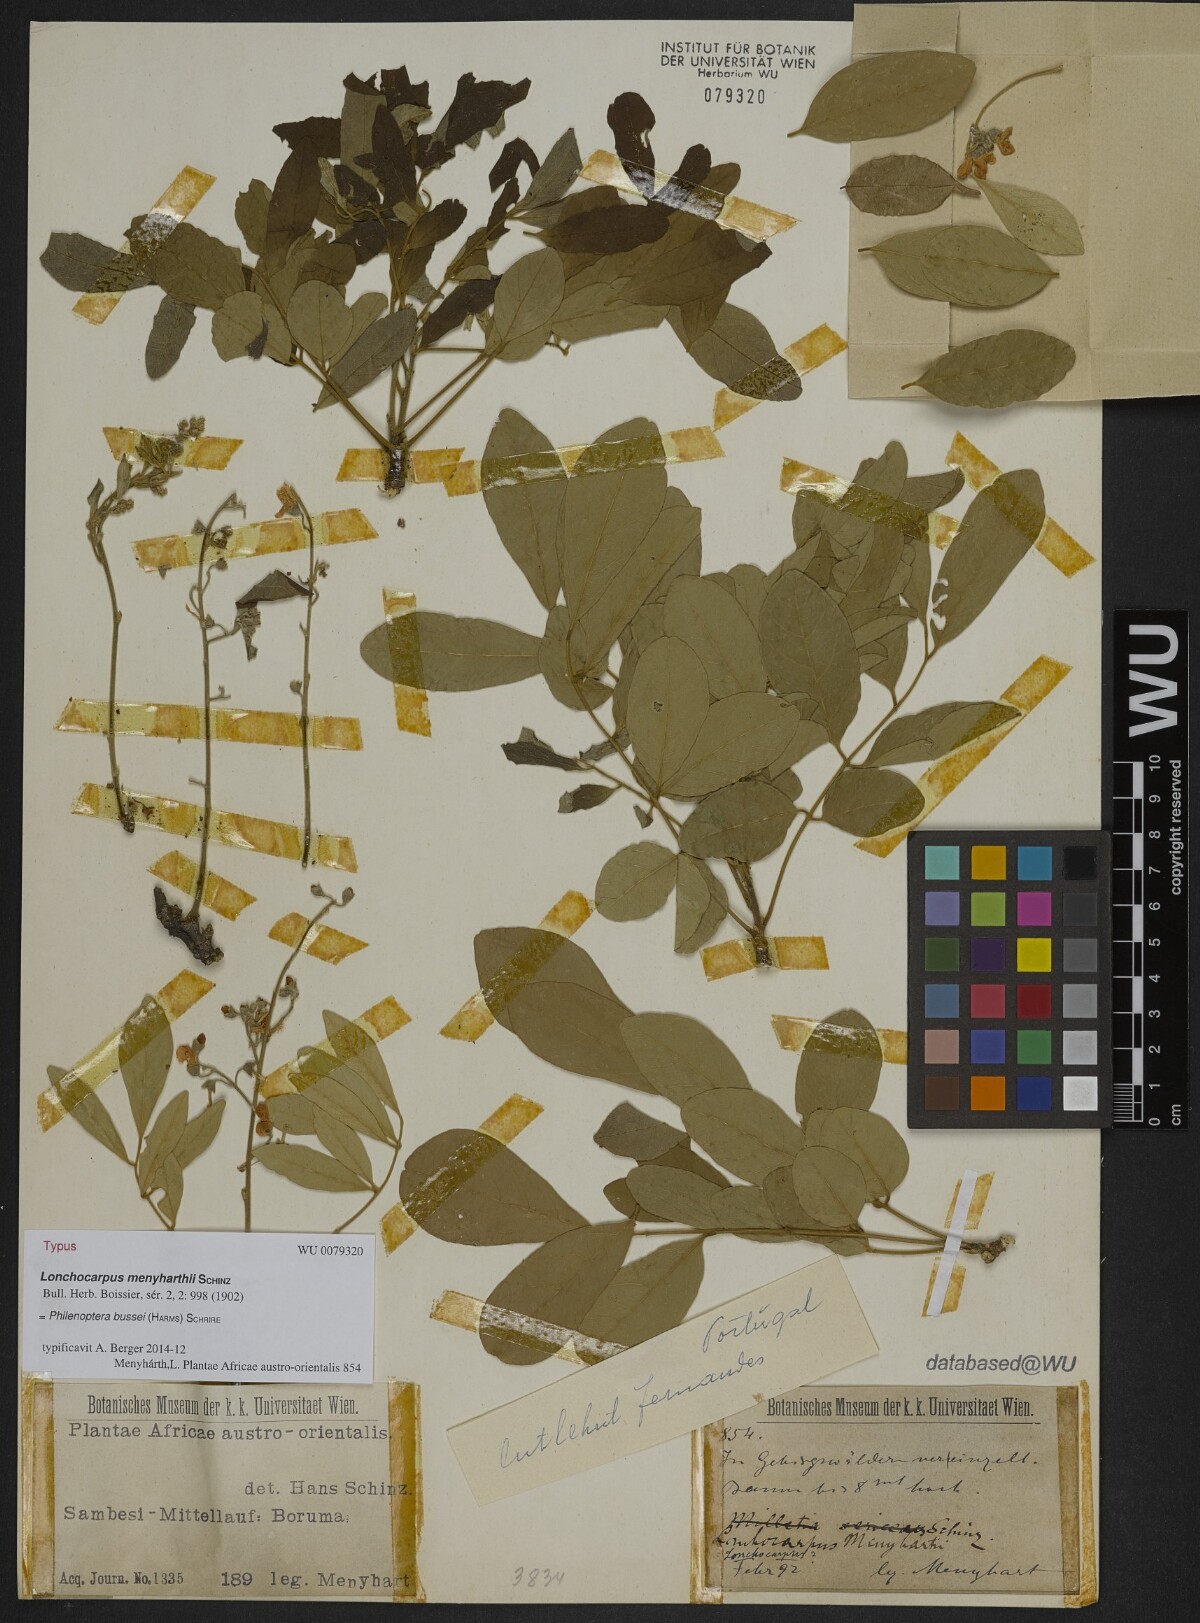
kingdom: Plantae
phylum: Tracheophyta
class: Magnoliopsida
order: Fabales
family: Fabaceae
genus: Philenoptera
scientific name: Philenoptera bussei
